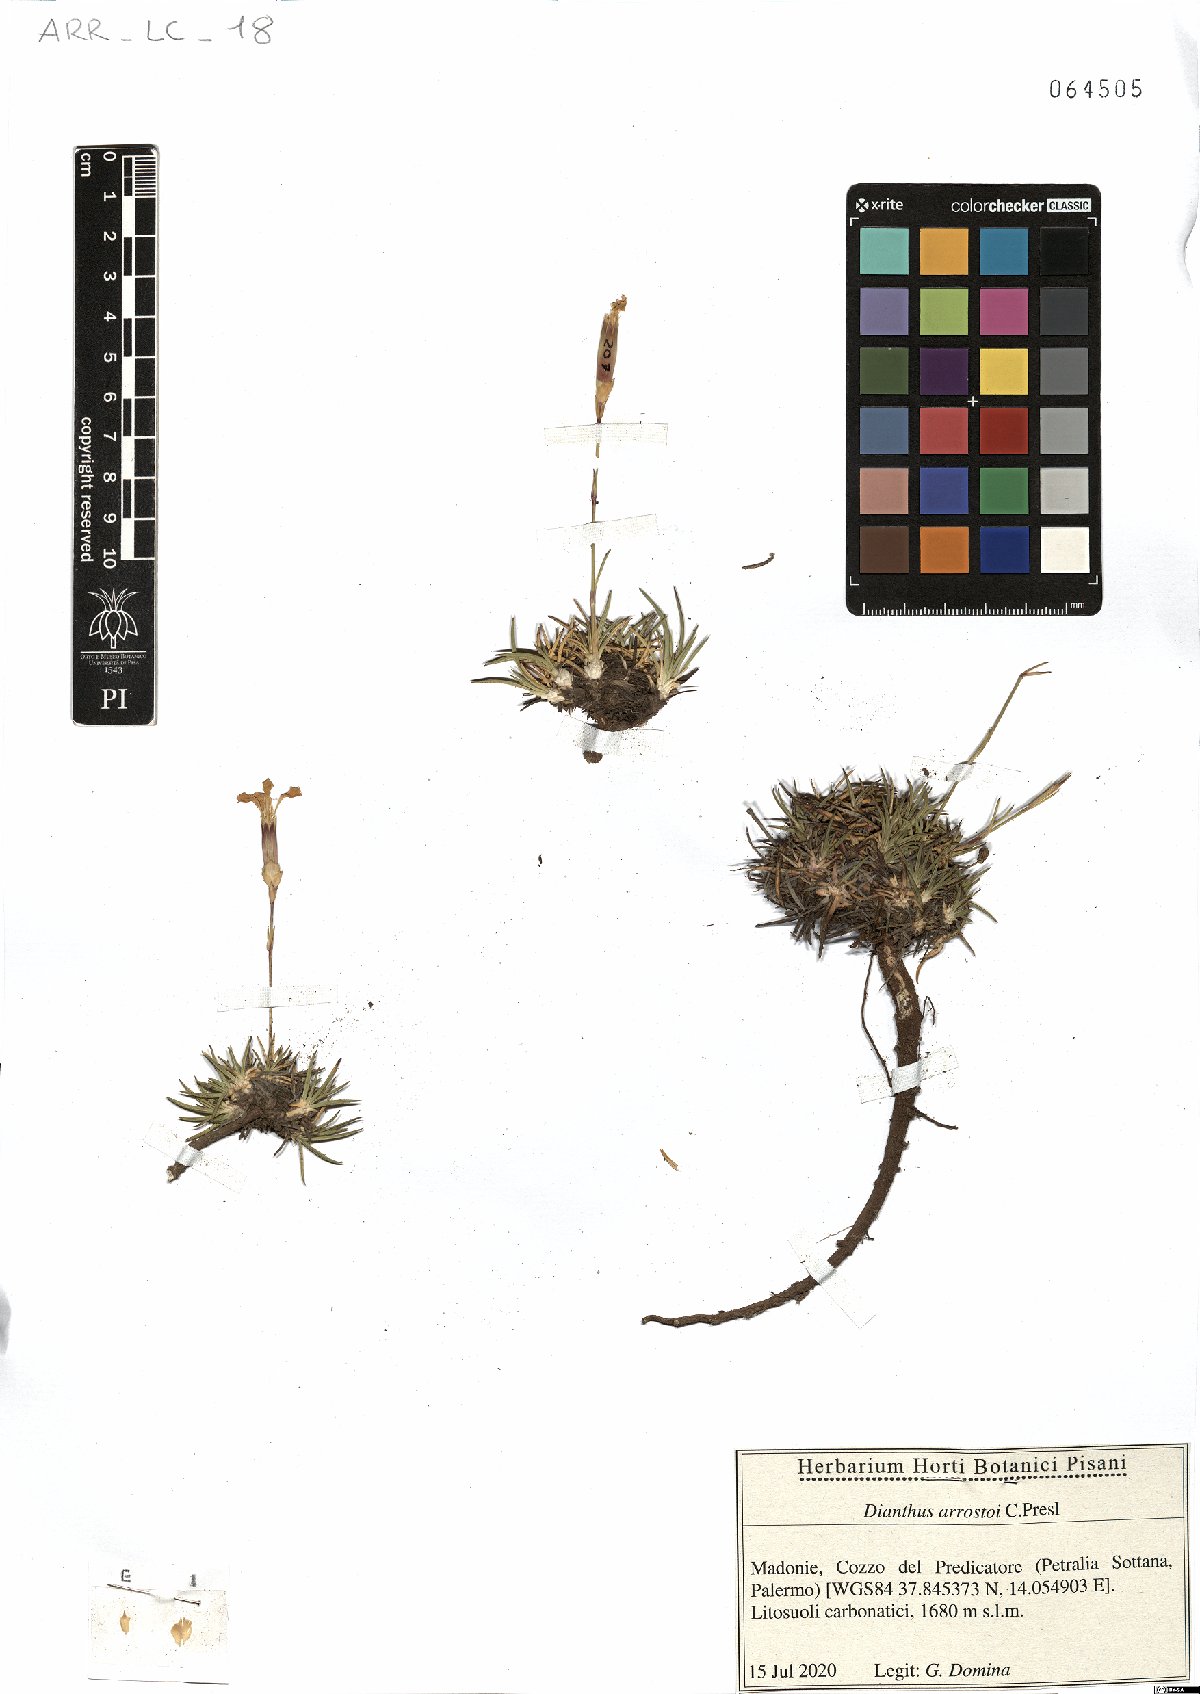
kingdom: Plantae
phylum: Tracheophyta
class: Magnoliopsida
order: Caryophyllales
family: Caryophyllaceae
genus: Dianthus
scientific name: Dianthus arrostoi
